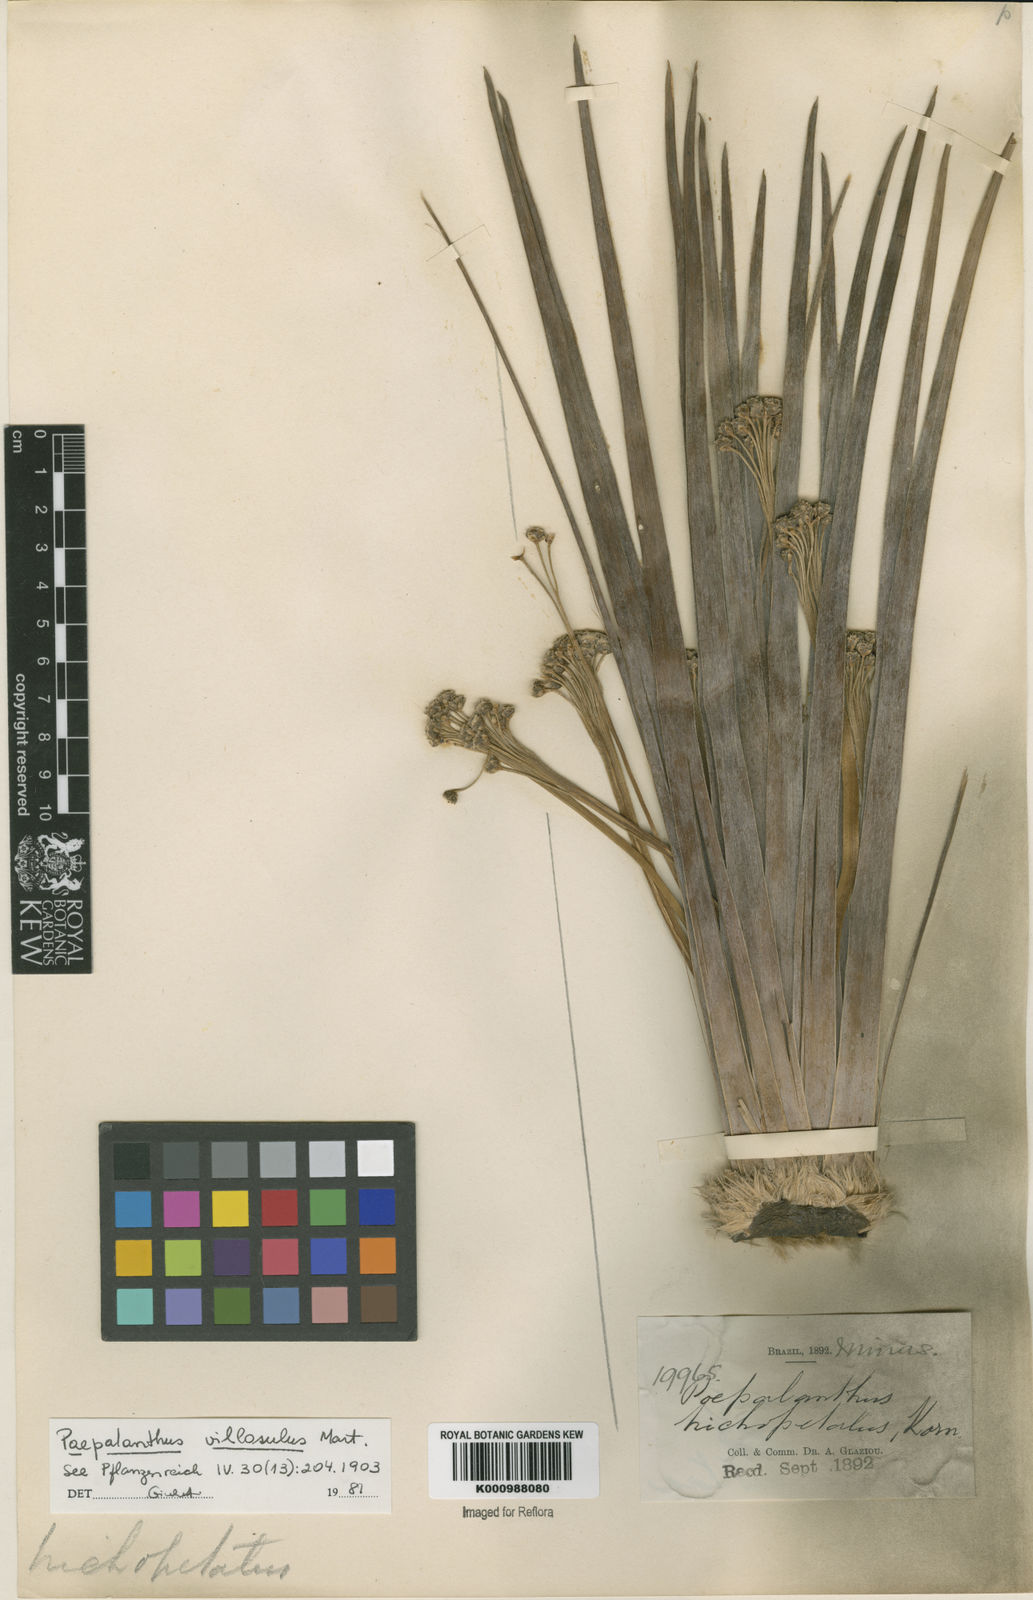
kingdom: Plantae
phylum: Tracheophyta
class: Liliopsida
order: Poales
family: Eriocaulaceae
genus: Paepalanthus
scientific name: Paepalanthus
